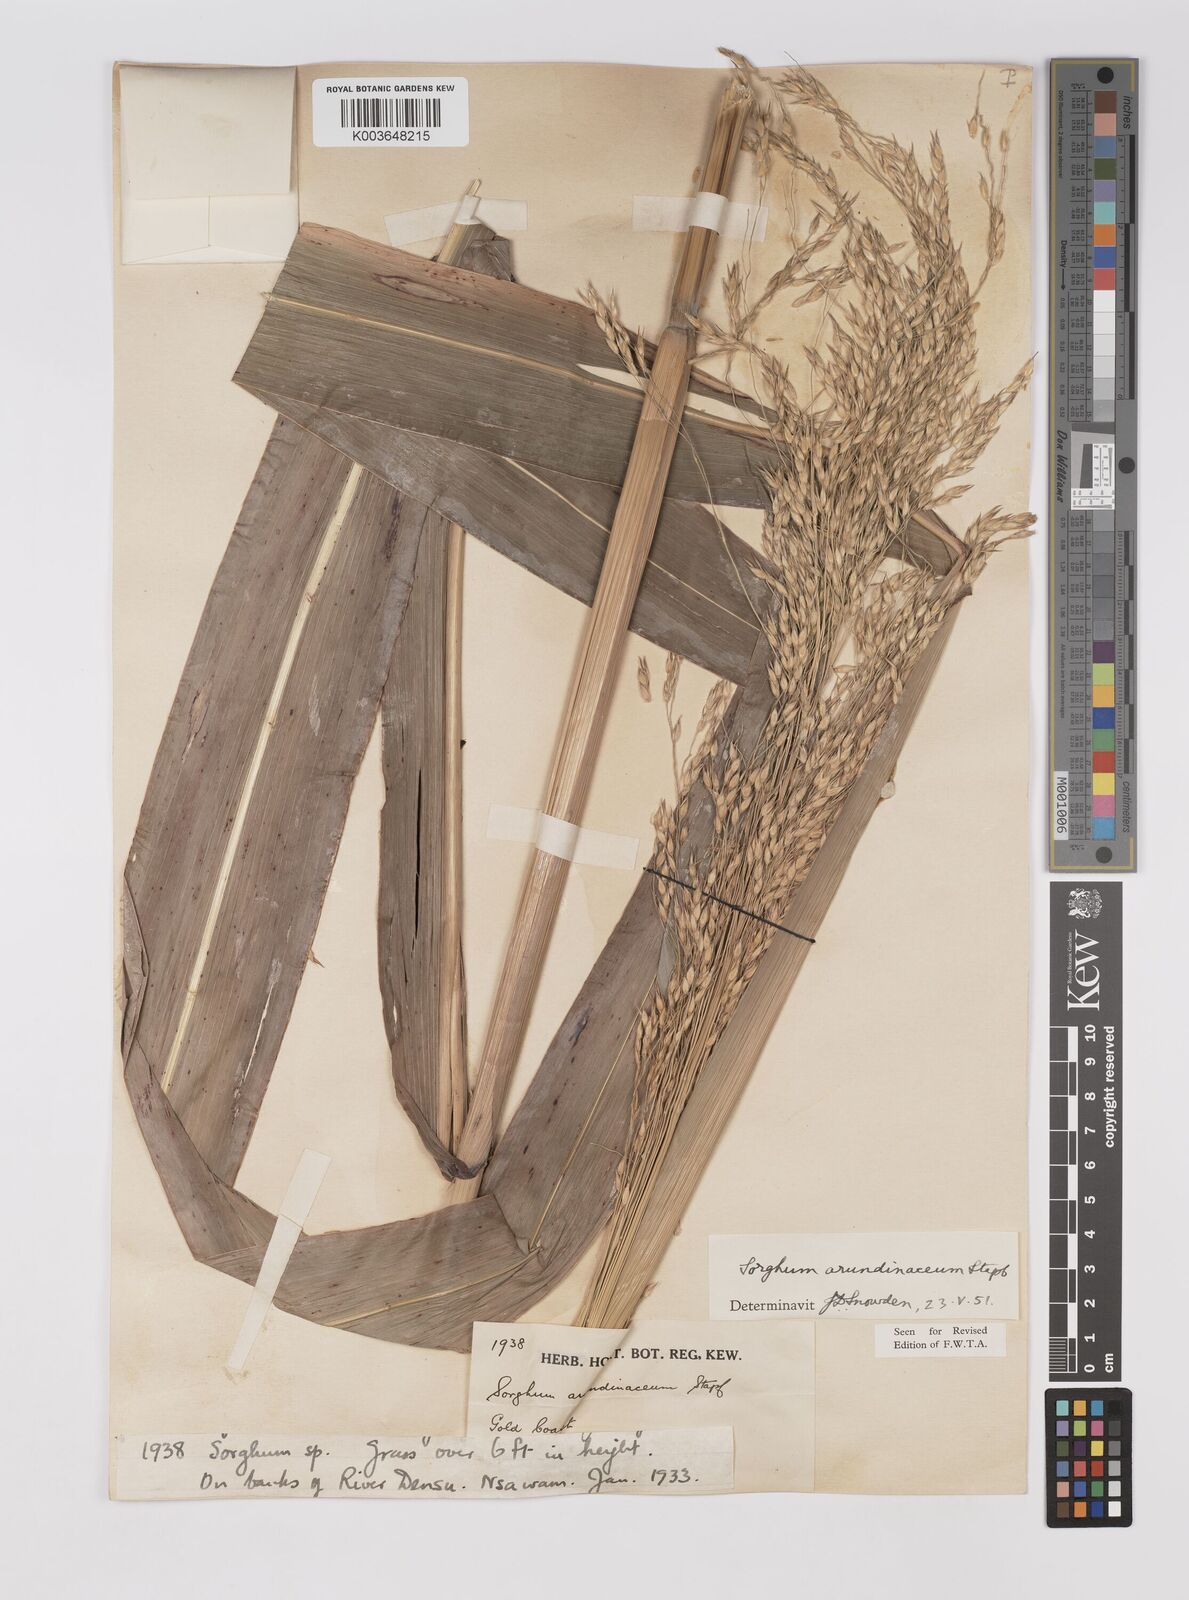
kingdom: Plantae
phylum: Tracheophyta
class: Liliopsida
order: Poales
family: Poaceae
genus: Sorghum
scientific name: Sorghum arundinaceum
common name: Sorghum
